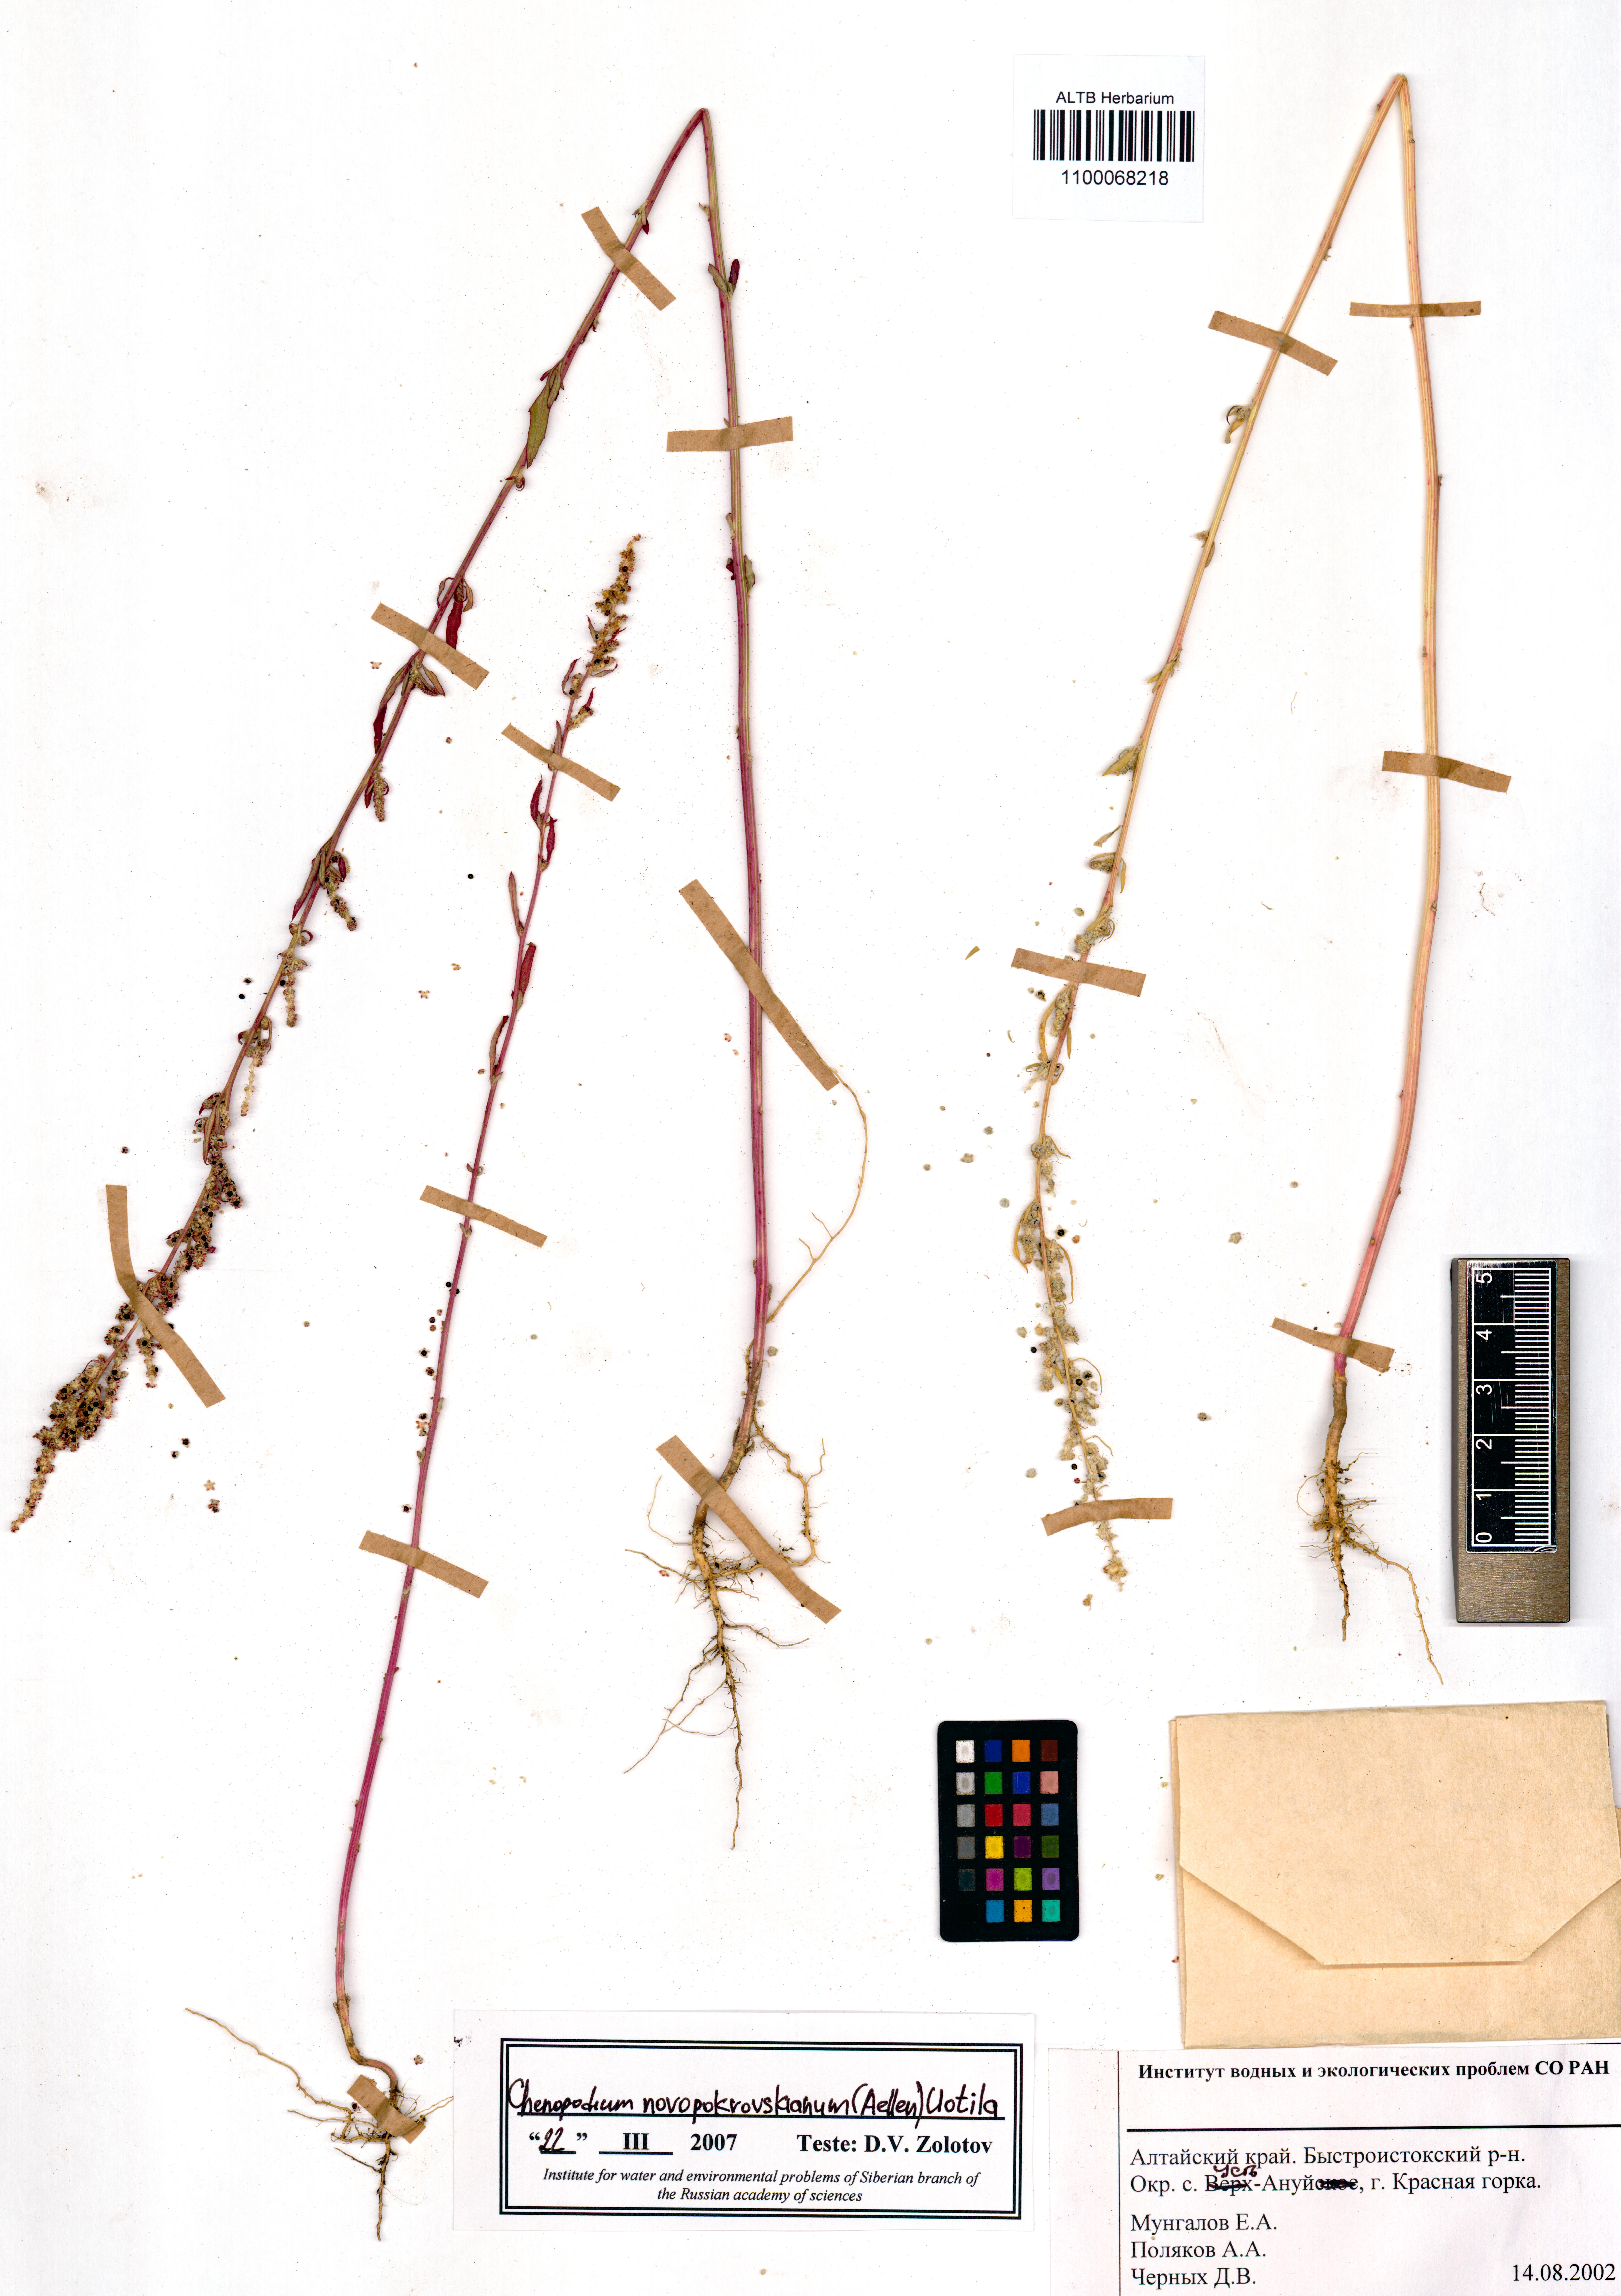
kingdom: Plantae
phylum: Tracheophyta
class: Magnoliopsida
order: Caryophyllales
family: Amaranthaceae
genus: Chenopodium
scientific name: Chenopodium novopokrovskyanum
